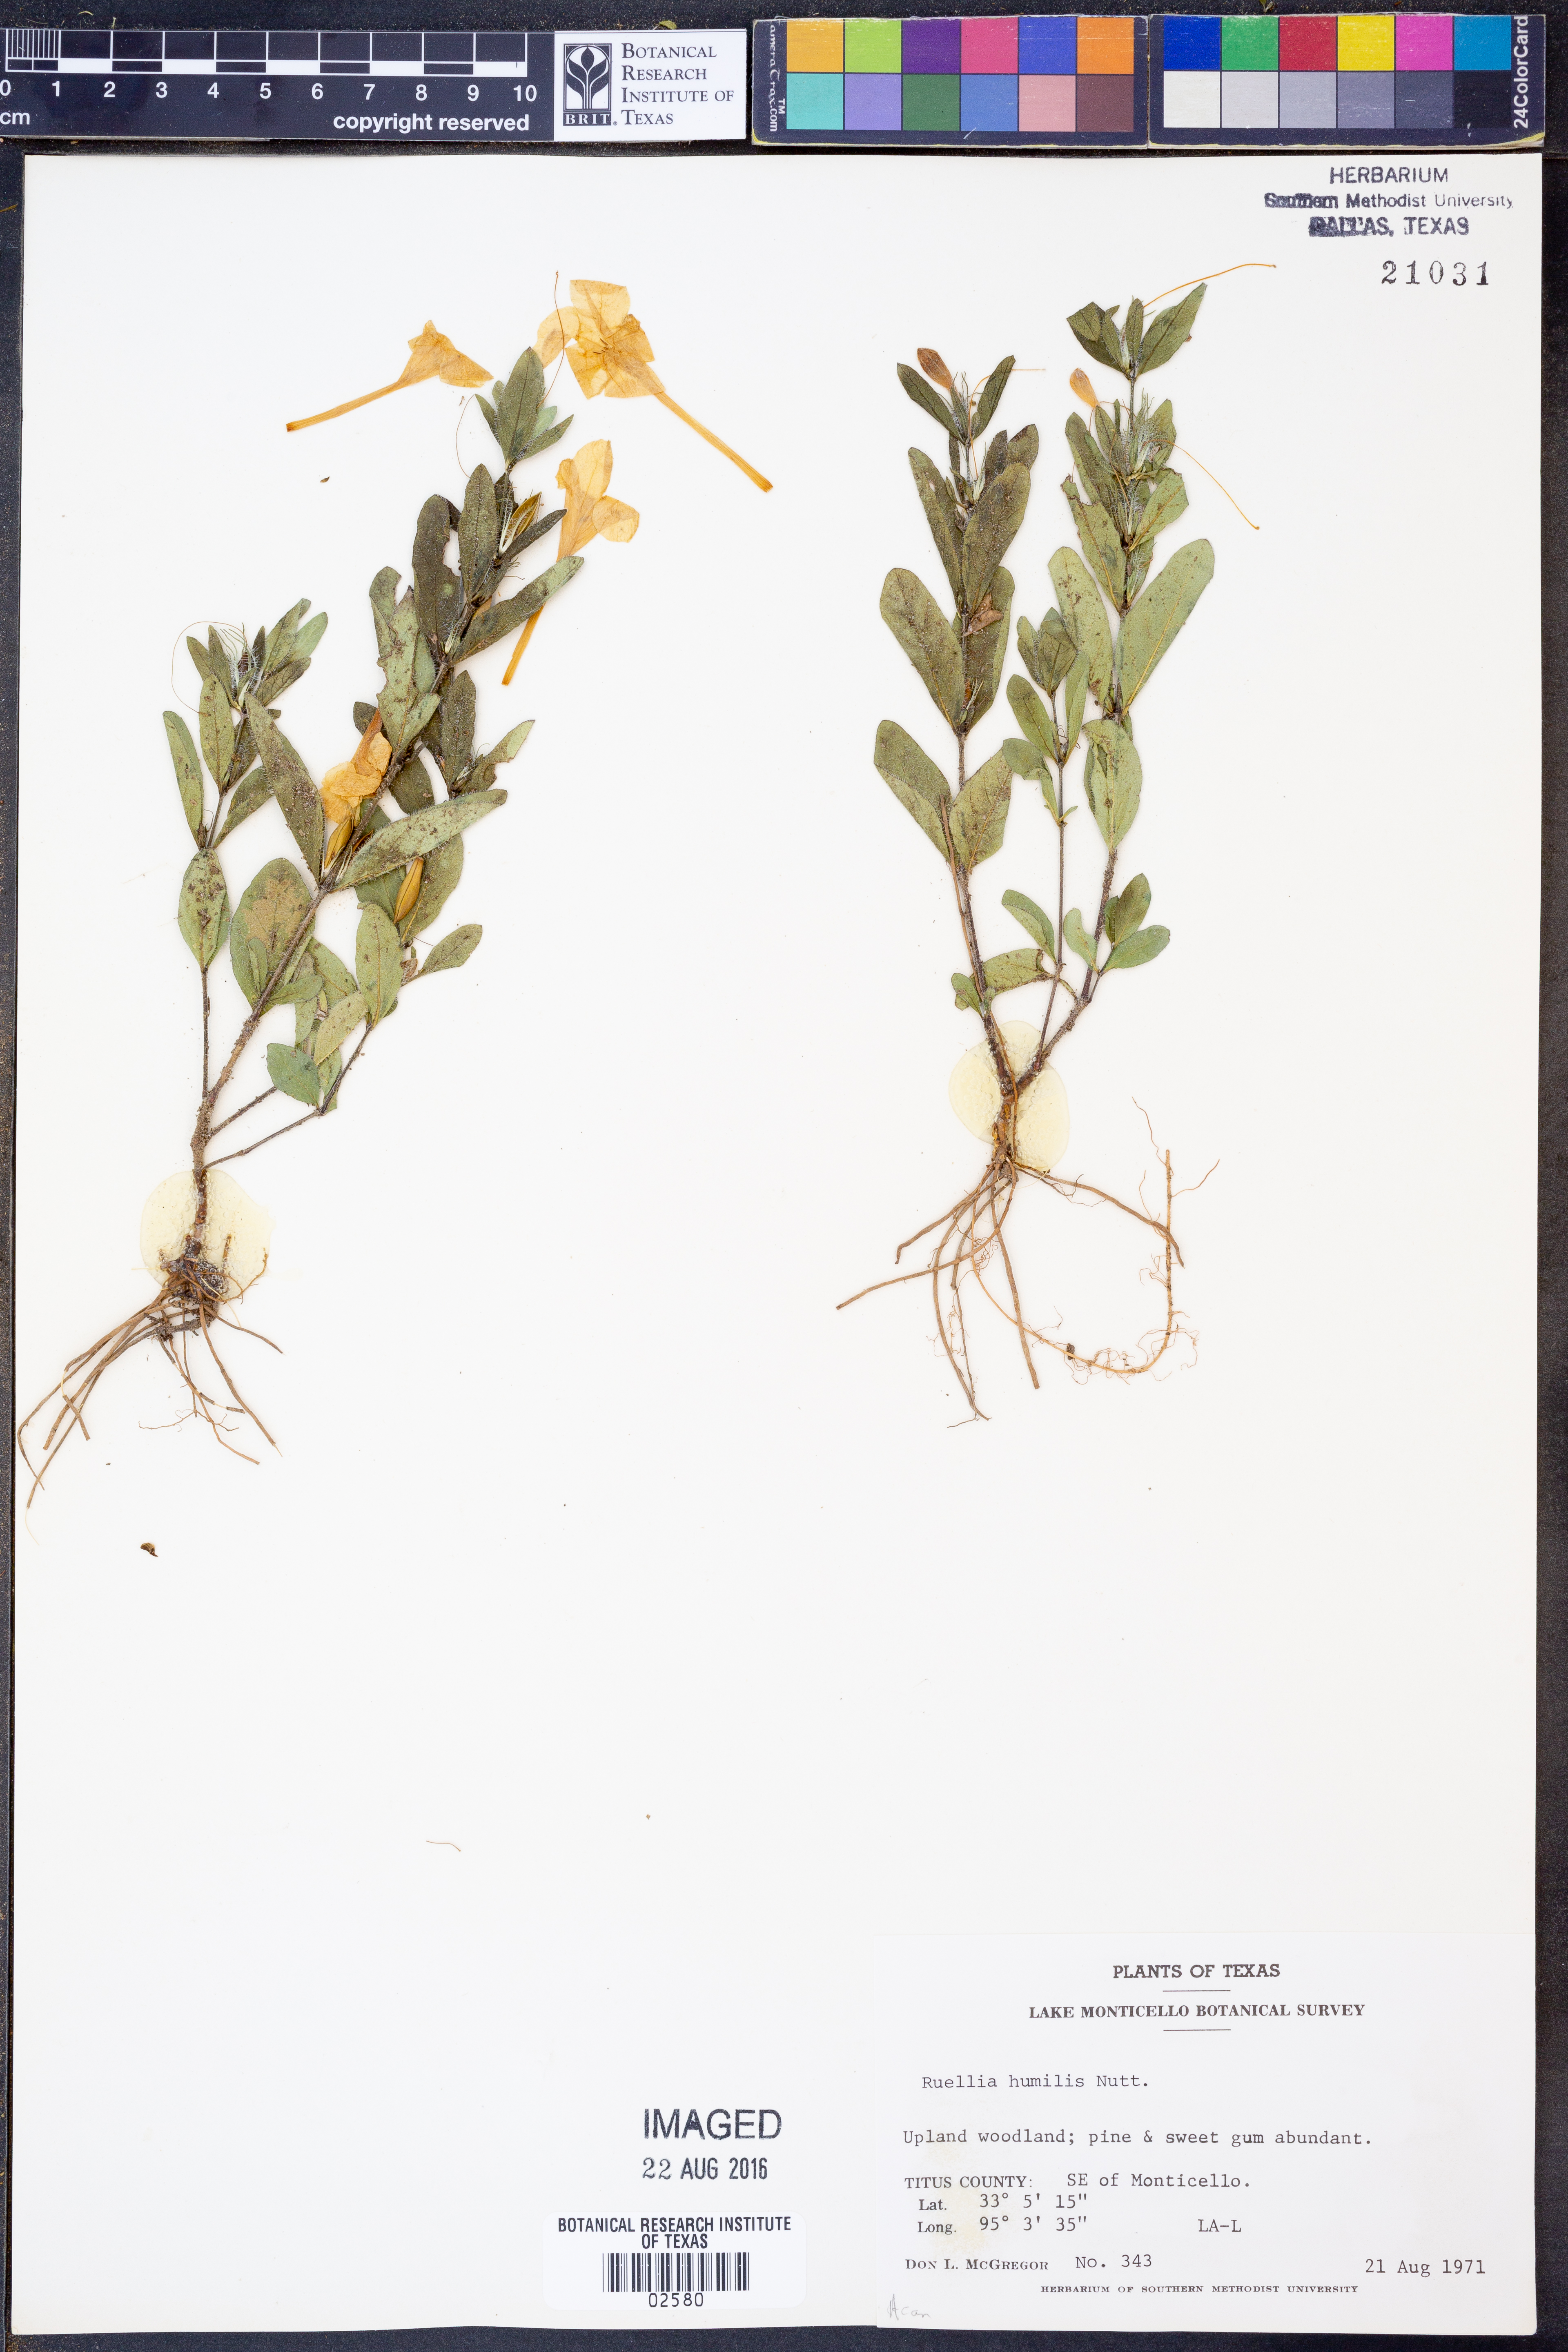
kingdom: Plantae
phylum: Tracheophyta
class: Magnoliopsida
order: Lamiales
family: Acanthaceae
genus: Ruellia
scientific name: Ruellia humilis
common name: Fringe-leaf ruellia
